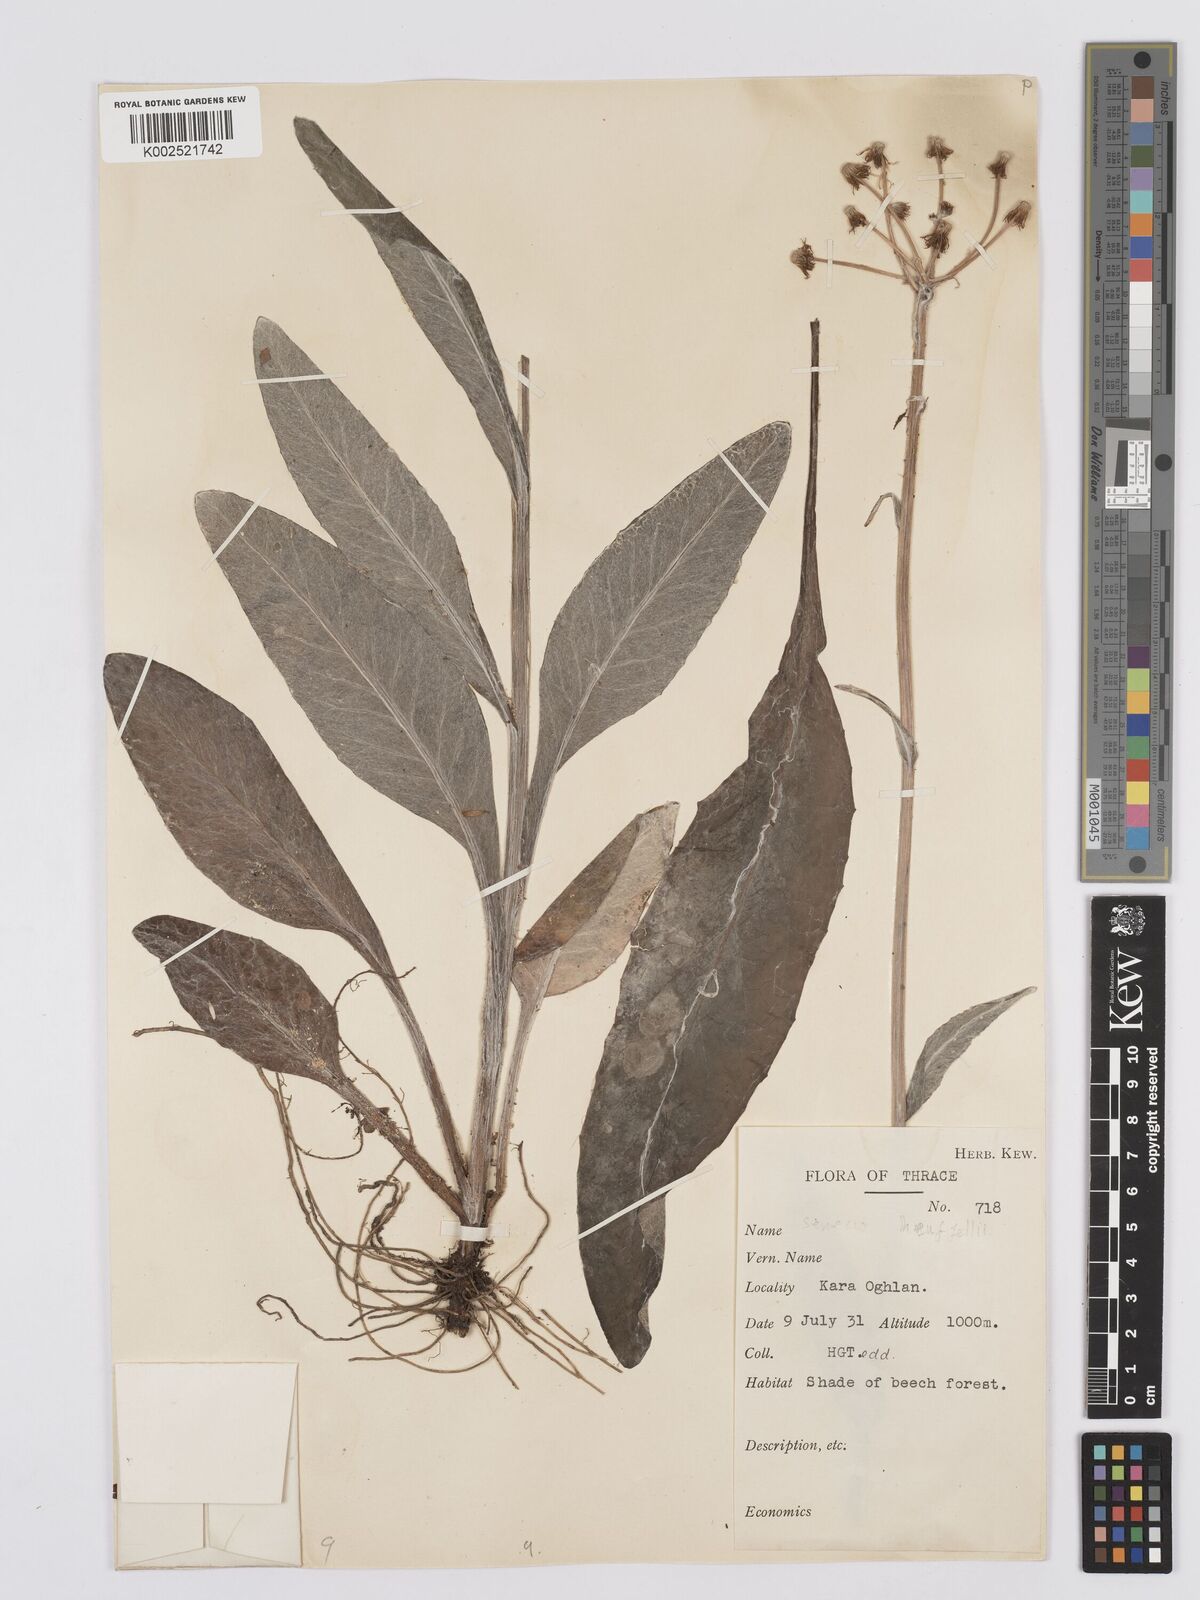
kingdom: Plantae
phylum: Tracheophyta
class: Magnoliopsida
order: Asterales
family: Asteraceae
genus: Tephroseris
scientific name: Tephroseris papposa
